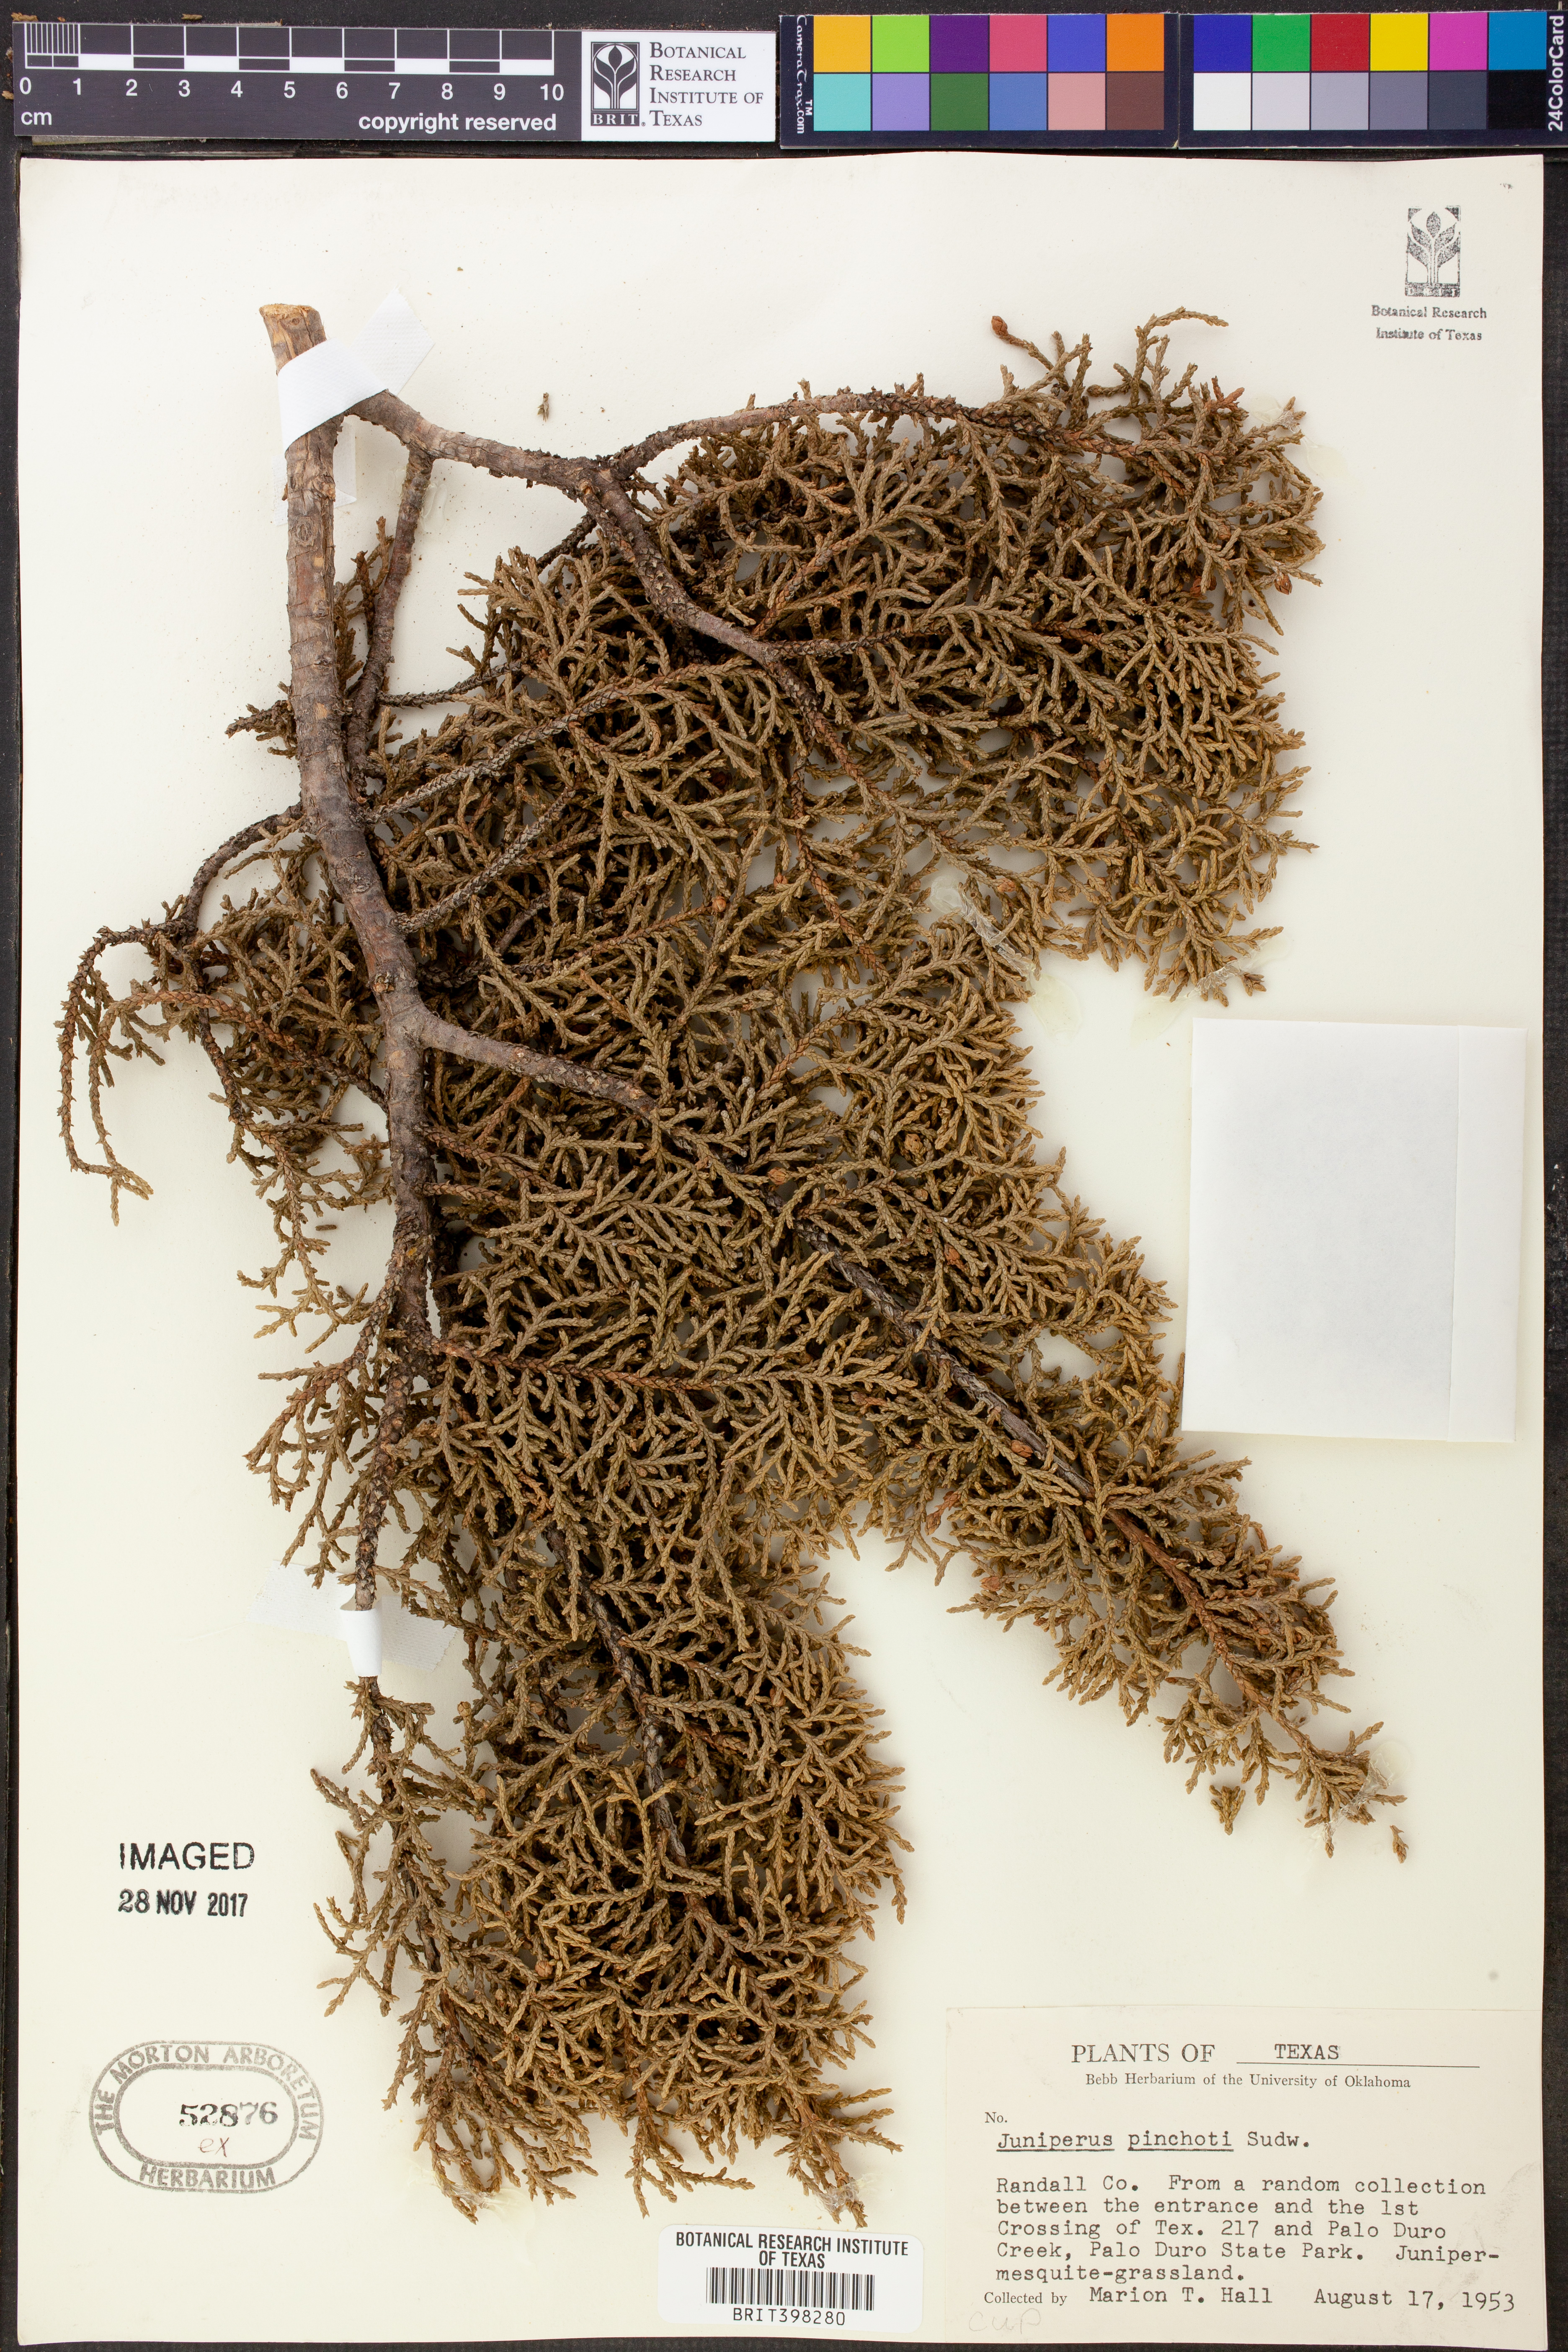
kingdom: Plantae
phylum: Tracheophyta
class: Pinopsida
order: Pinales
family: Cupressaceae
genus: Juniperus
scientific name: Juniperus pinchotii
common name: Pinchot juniper
